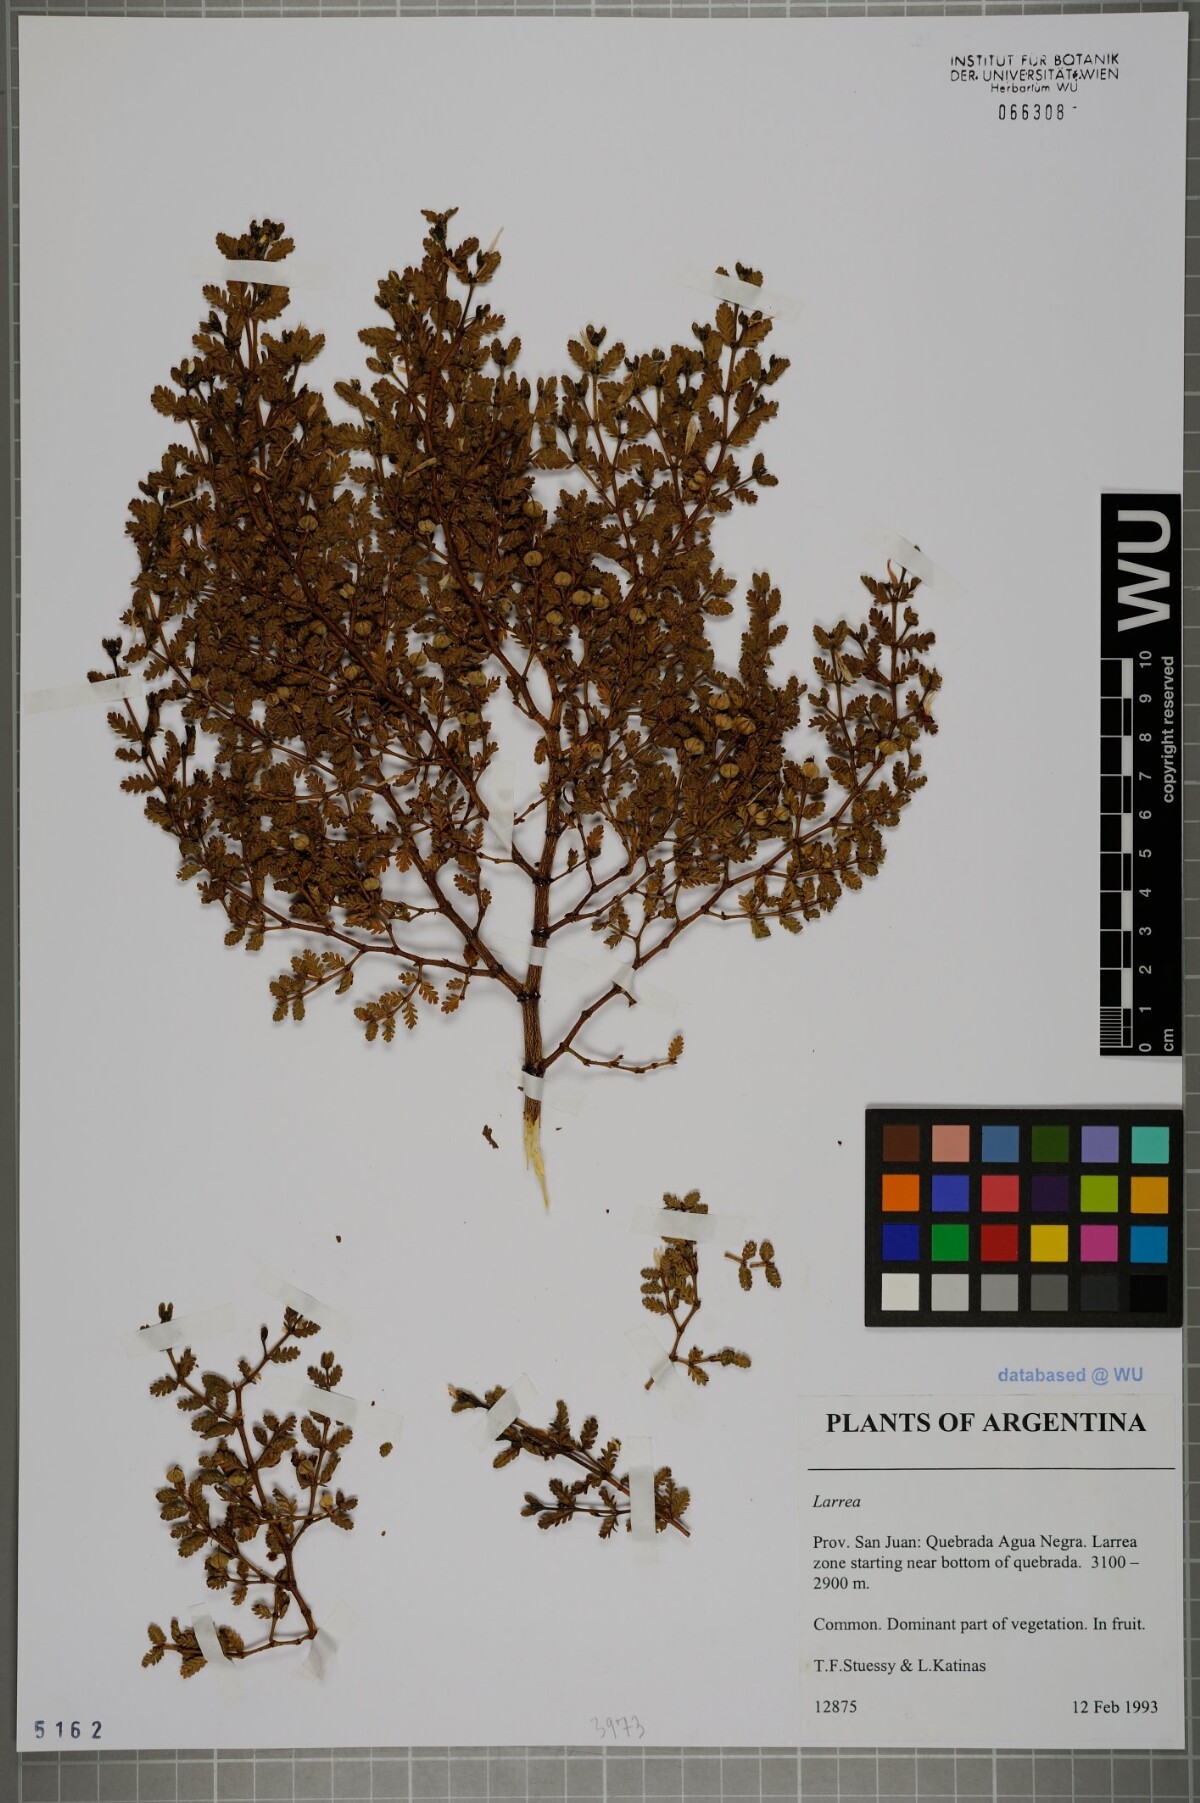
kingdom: Plantae
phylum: Tracheophyta
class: Magnoliopsida
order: Zygophyllales
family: Zygophyllaceae
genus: Larrea
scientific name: Larrea
